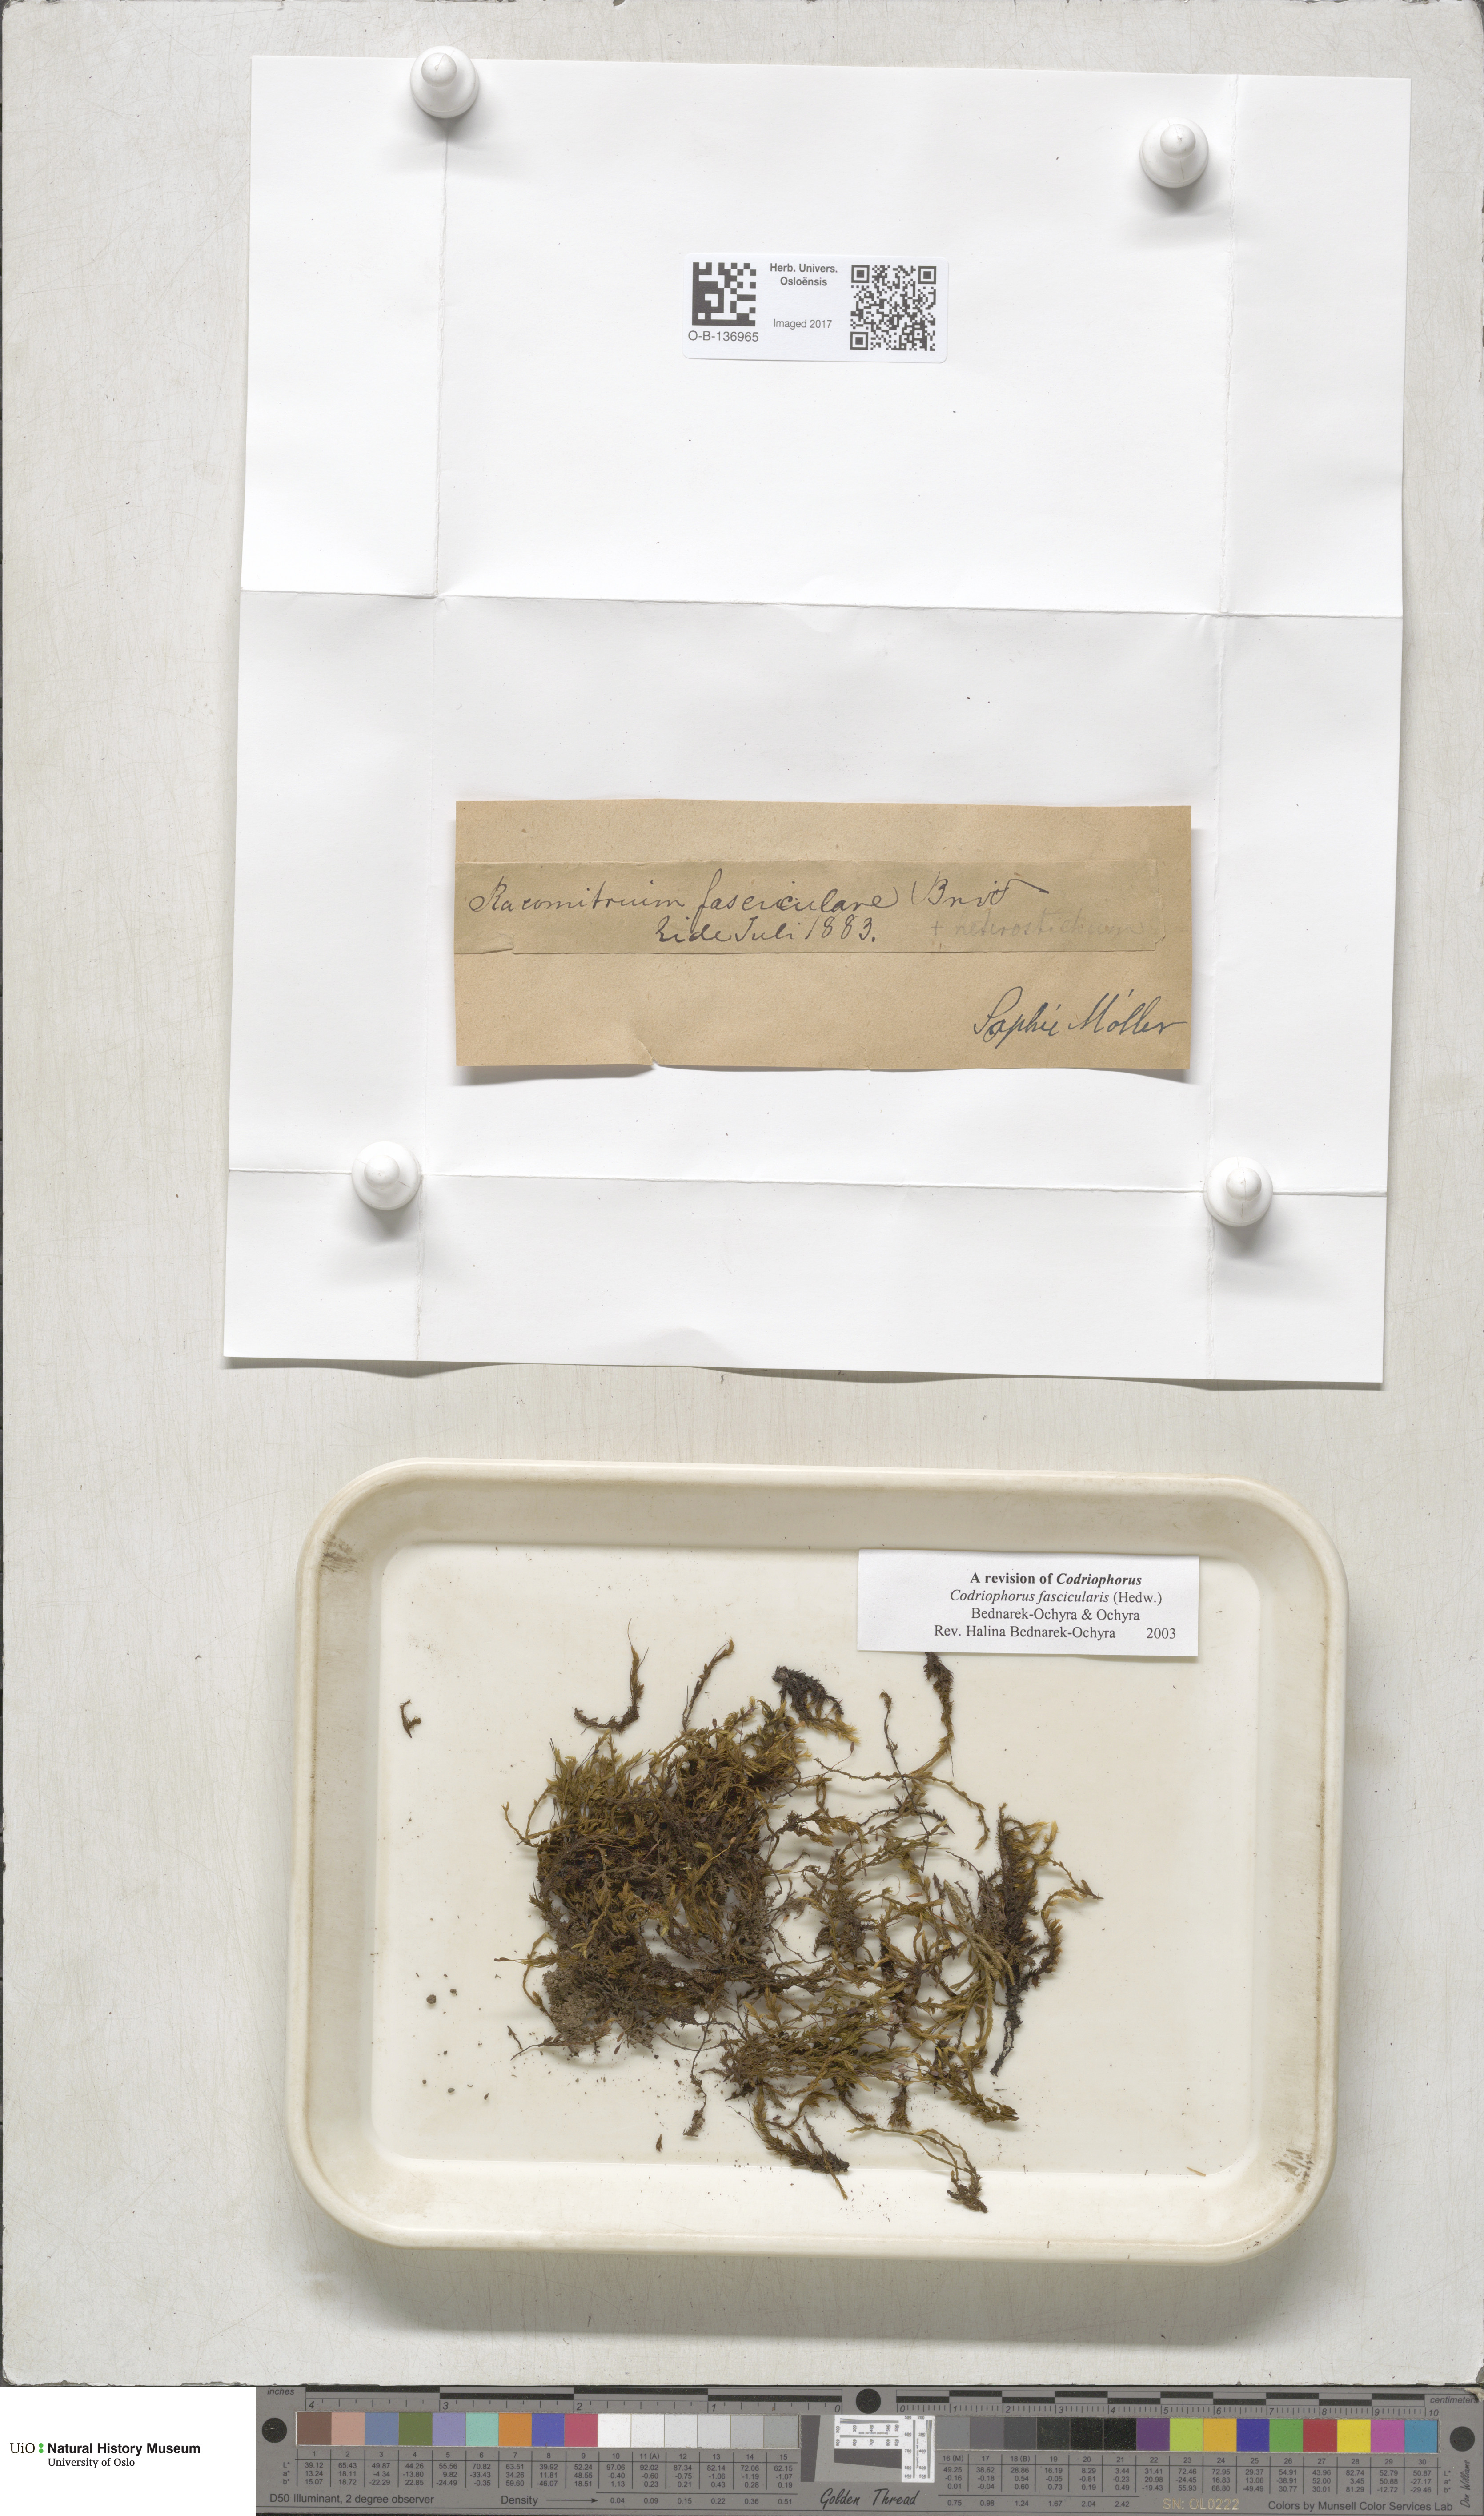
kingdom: Plantae
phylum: Bryophyta
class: Bryopsida
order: Grimmiales
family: Grimmiaceae
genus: Dilutineuron
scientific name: Dilutineuron fasciculare
